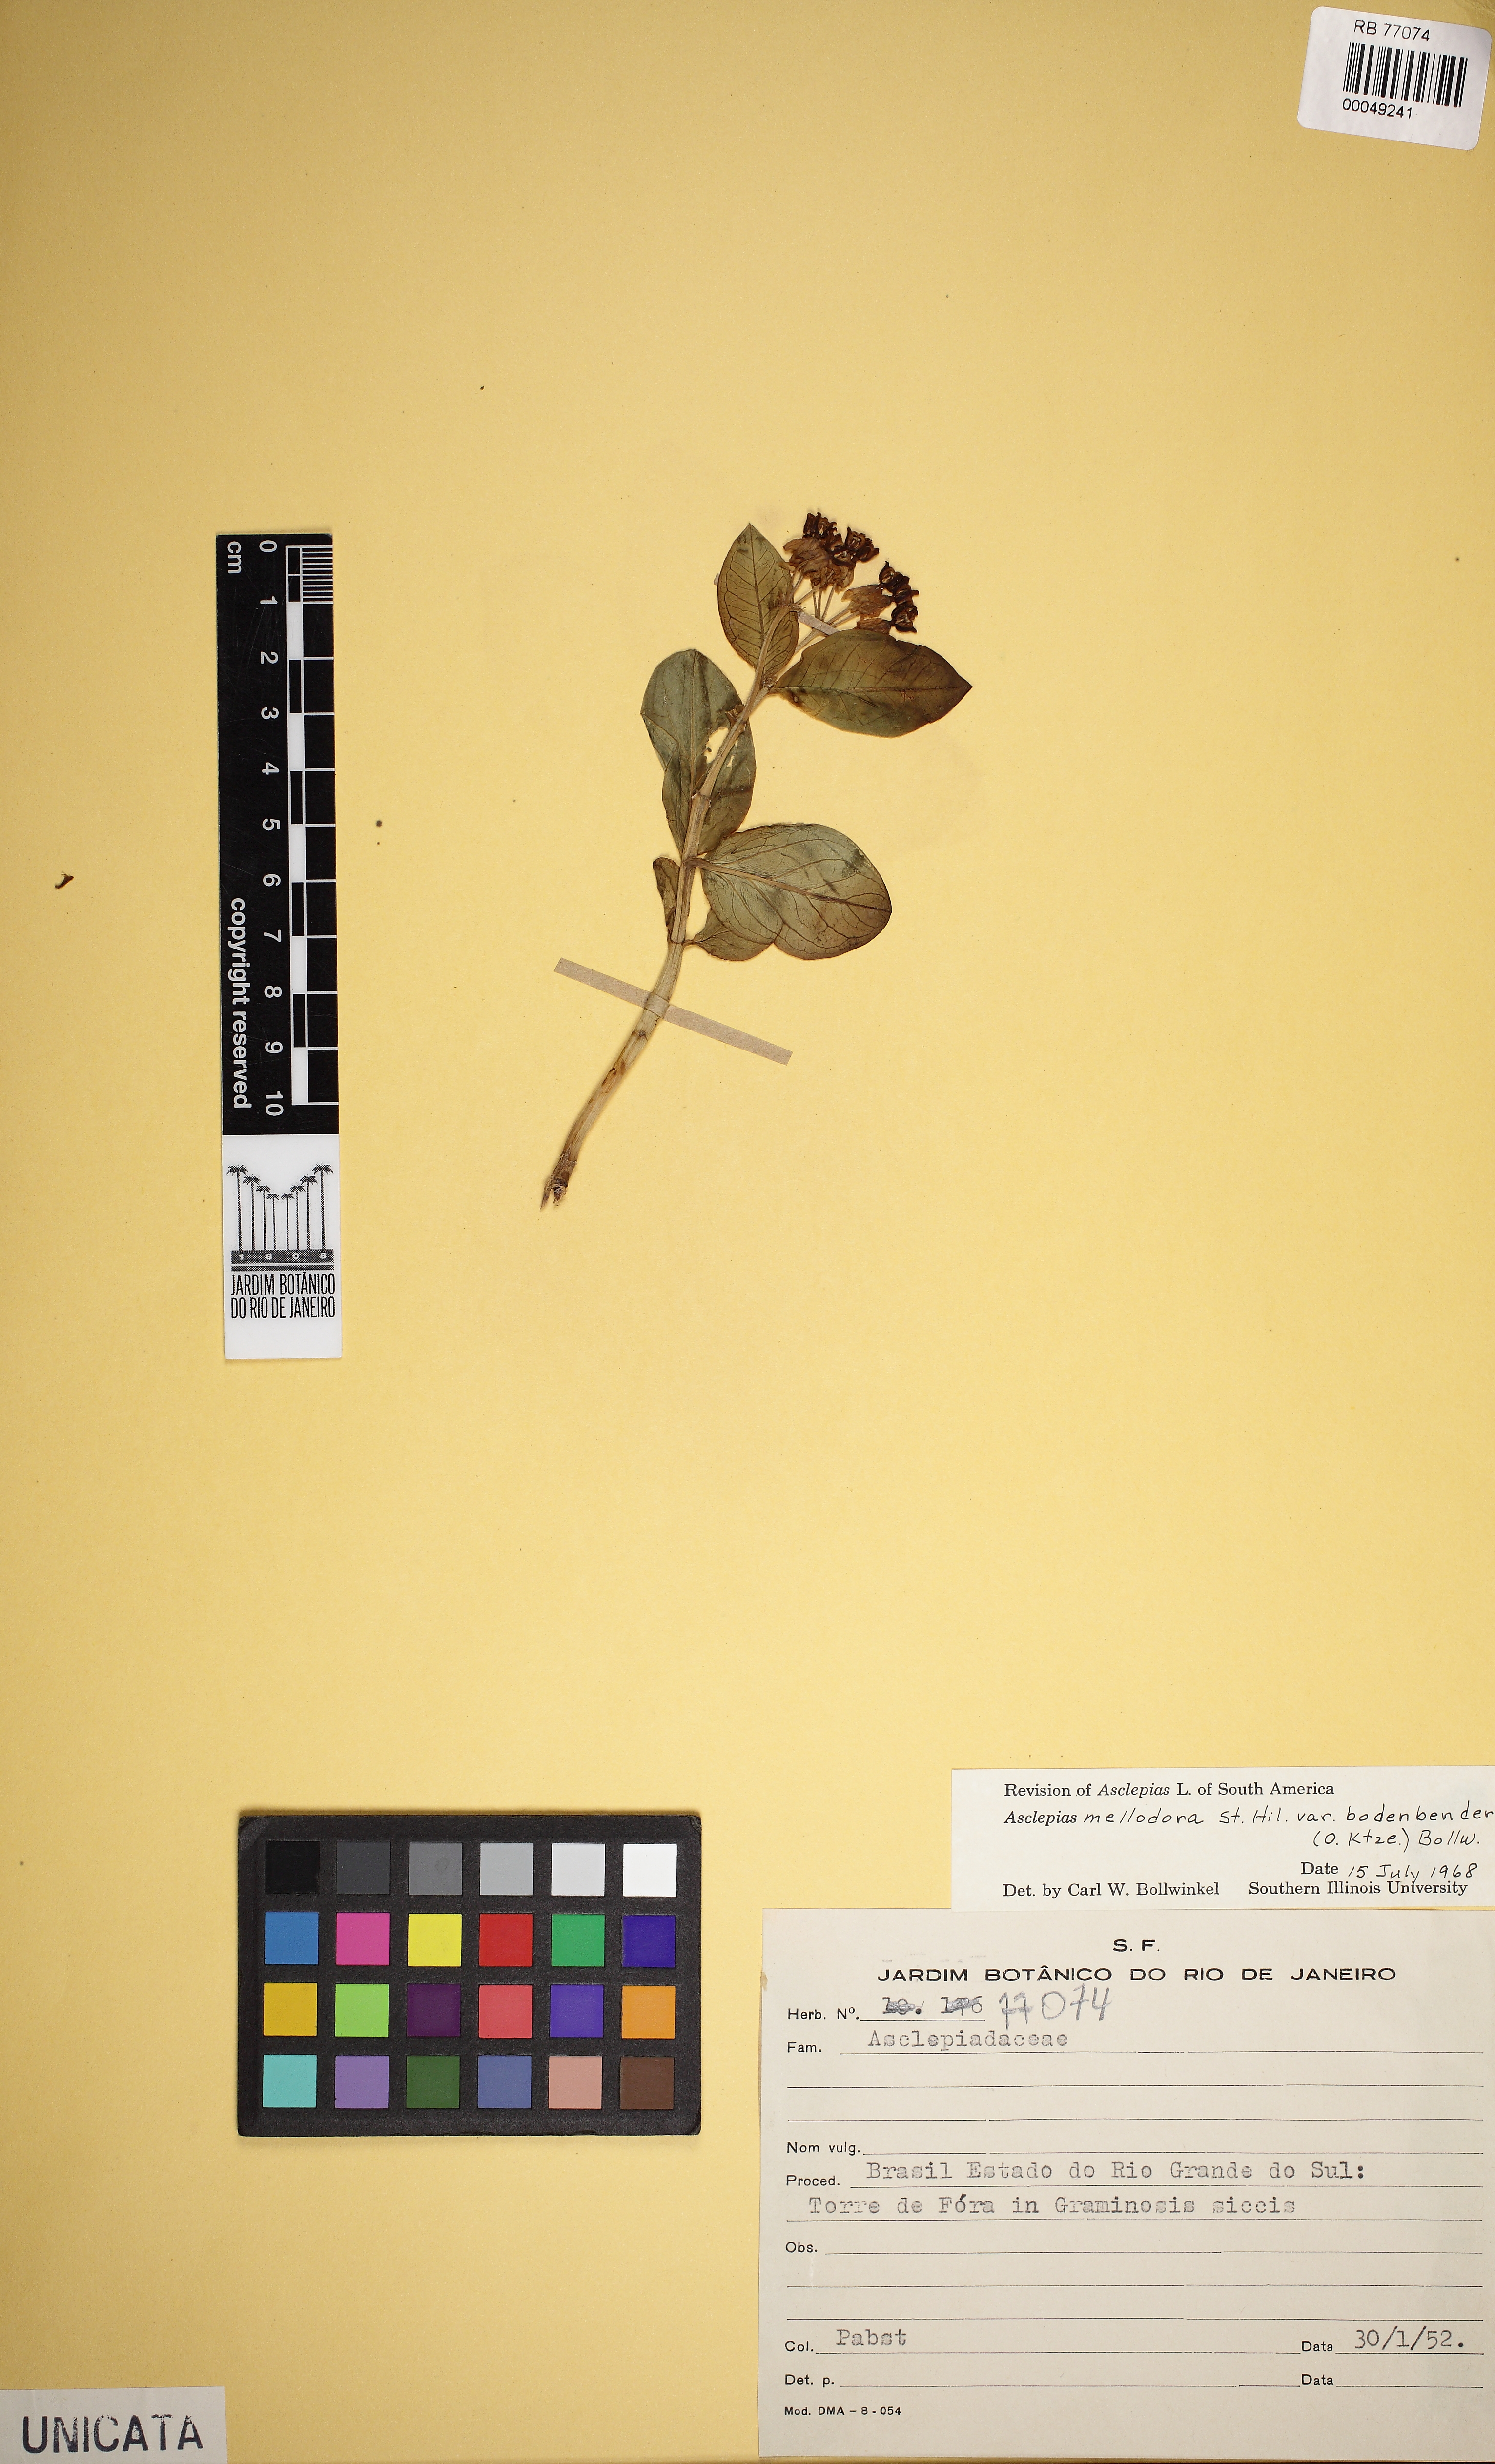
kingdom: Plantae
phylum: Tracheophyta
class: Magnoliopsida
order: Gentianales
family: Apocynaceae
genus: Asclepias
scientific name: Asclepias mellodora
